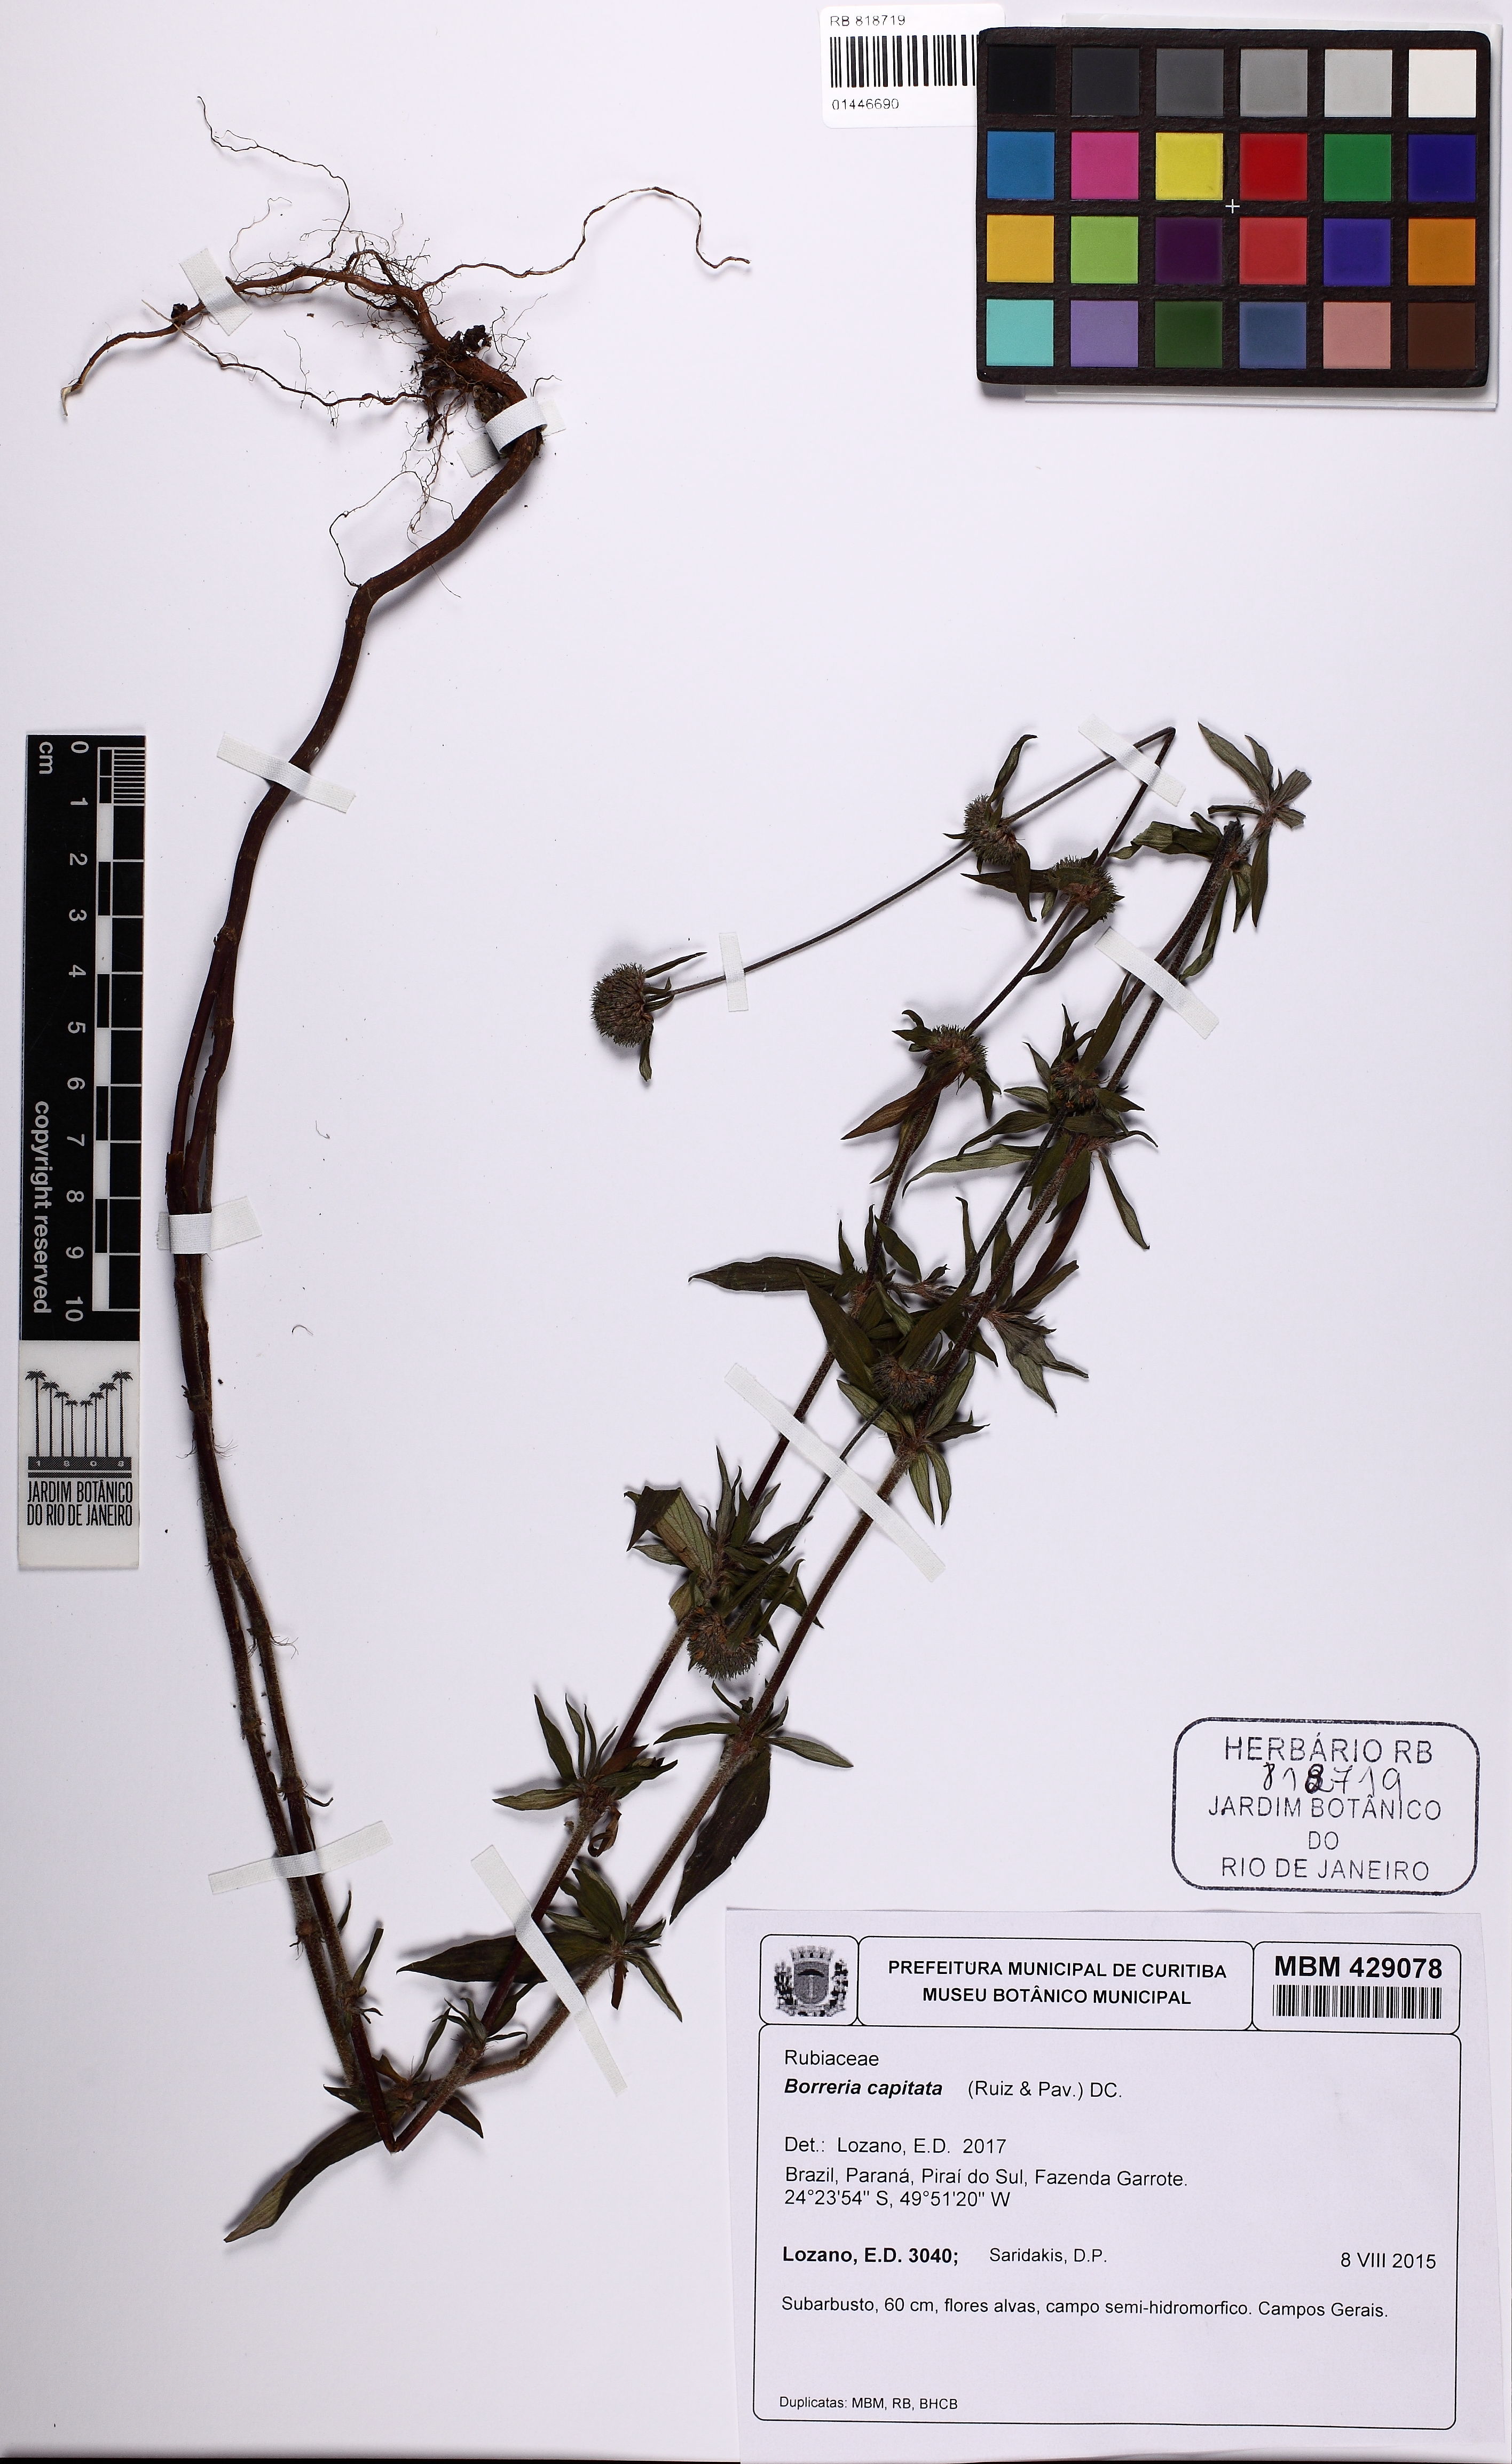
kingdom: Plantae
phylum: Tracheophyta
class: Magnoliopsida
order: Gentianales
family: Rubiaceae
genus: Spermacoce
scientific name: Spermacoce capitata
